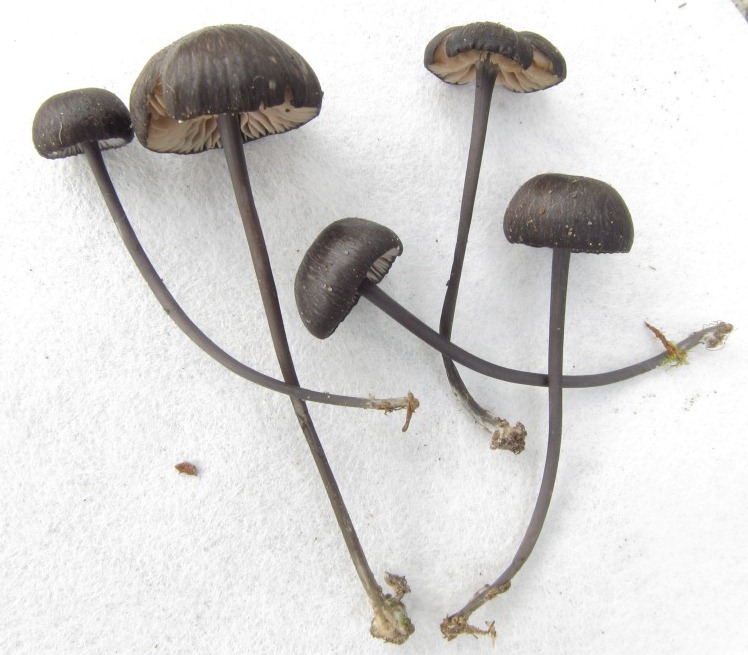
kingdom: Fungi
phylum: Basidiomycota
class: Agaricomycetes
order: Agaricales
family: Entolomataceae
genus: Entoloma
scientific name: Entoloma insidiosum
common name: ru rødblad
